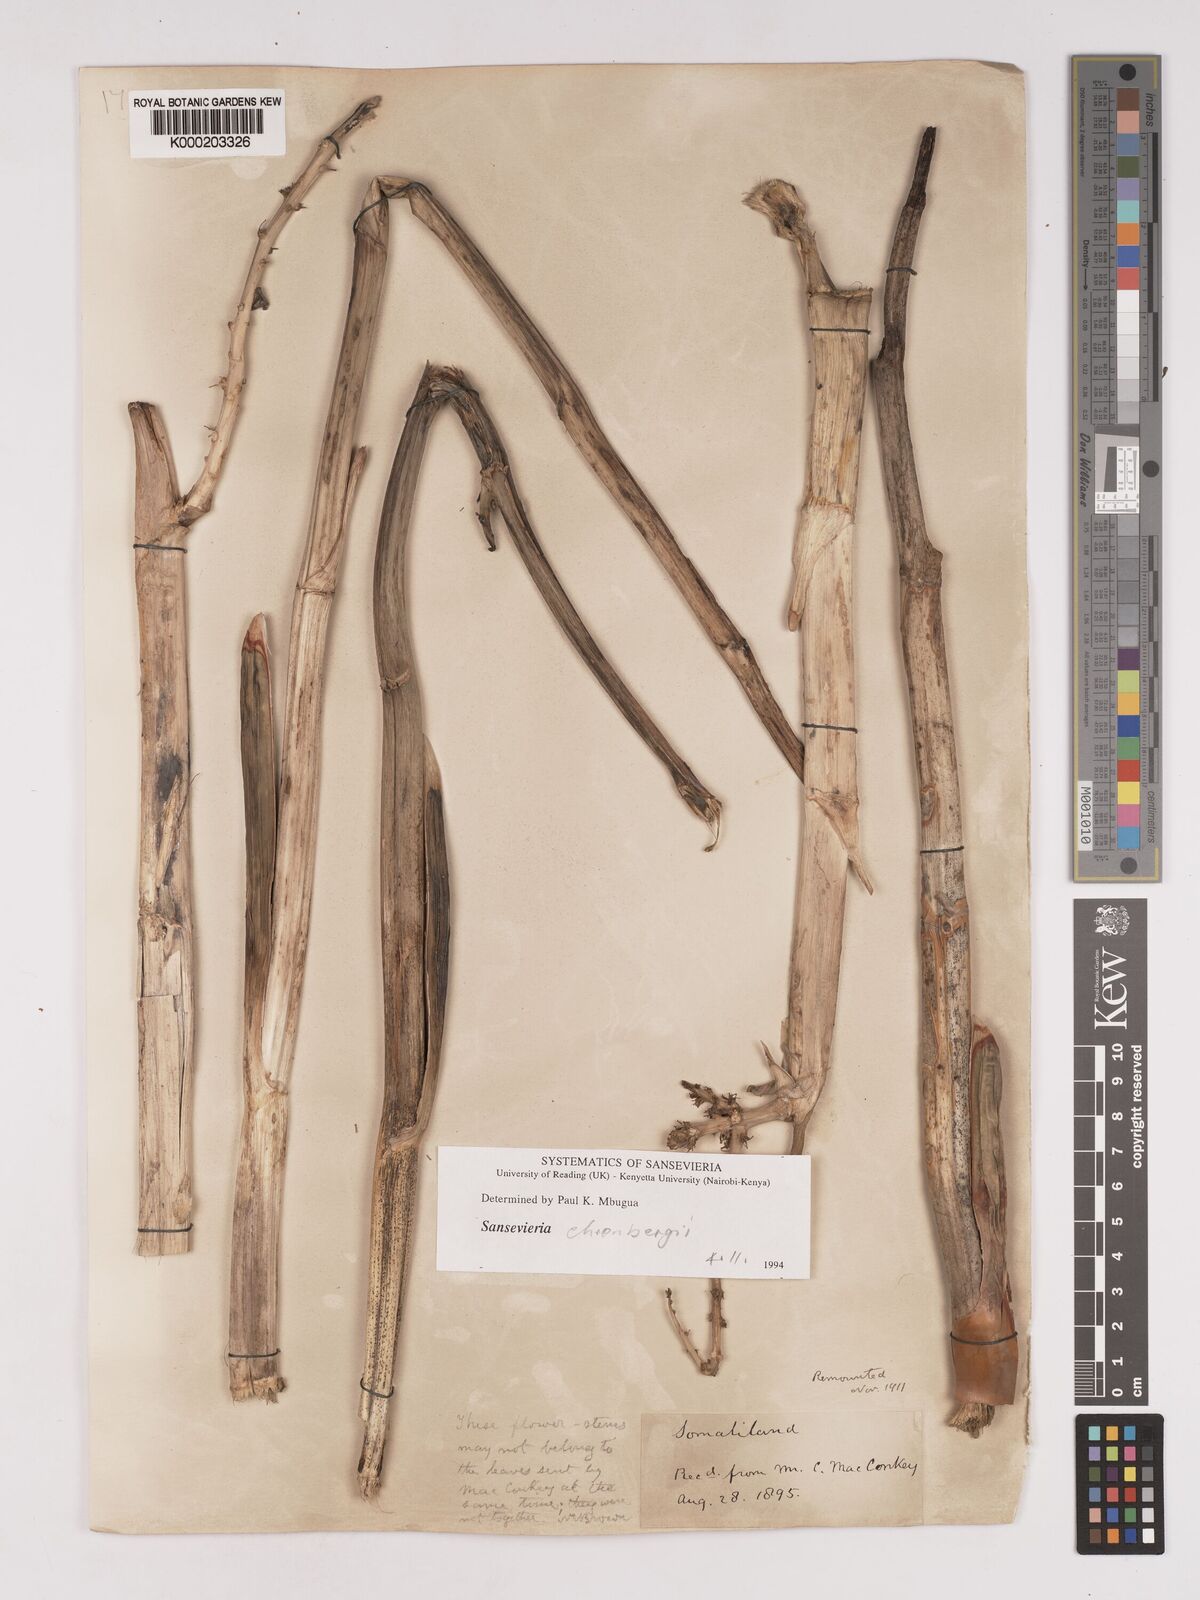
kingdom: Plantae
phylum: Tracheophyta
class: Liliopsida
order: Asparagales
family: Asparagaceae
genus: Dracaena
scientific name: Dracaena
